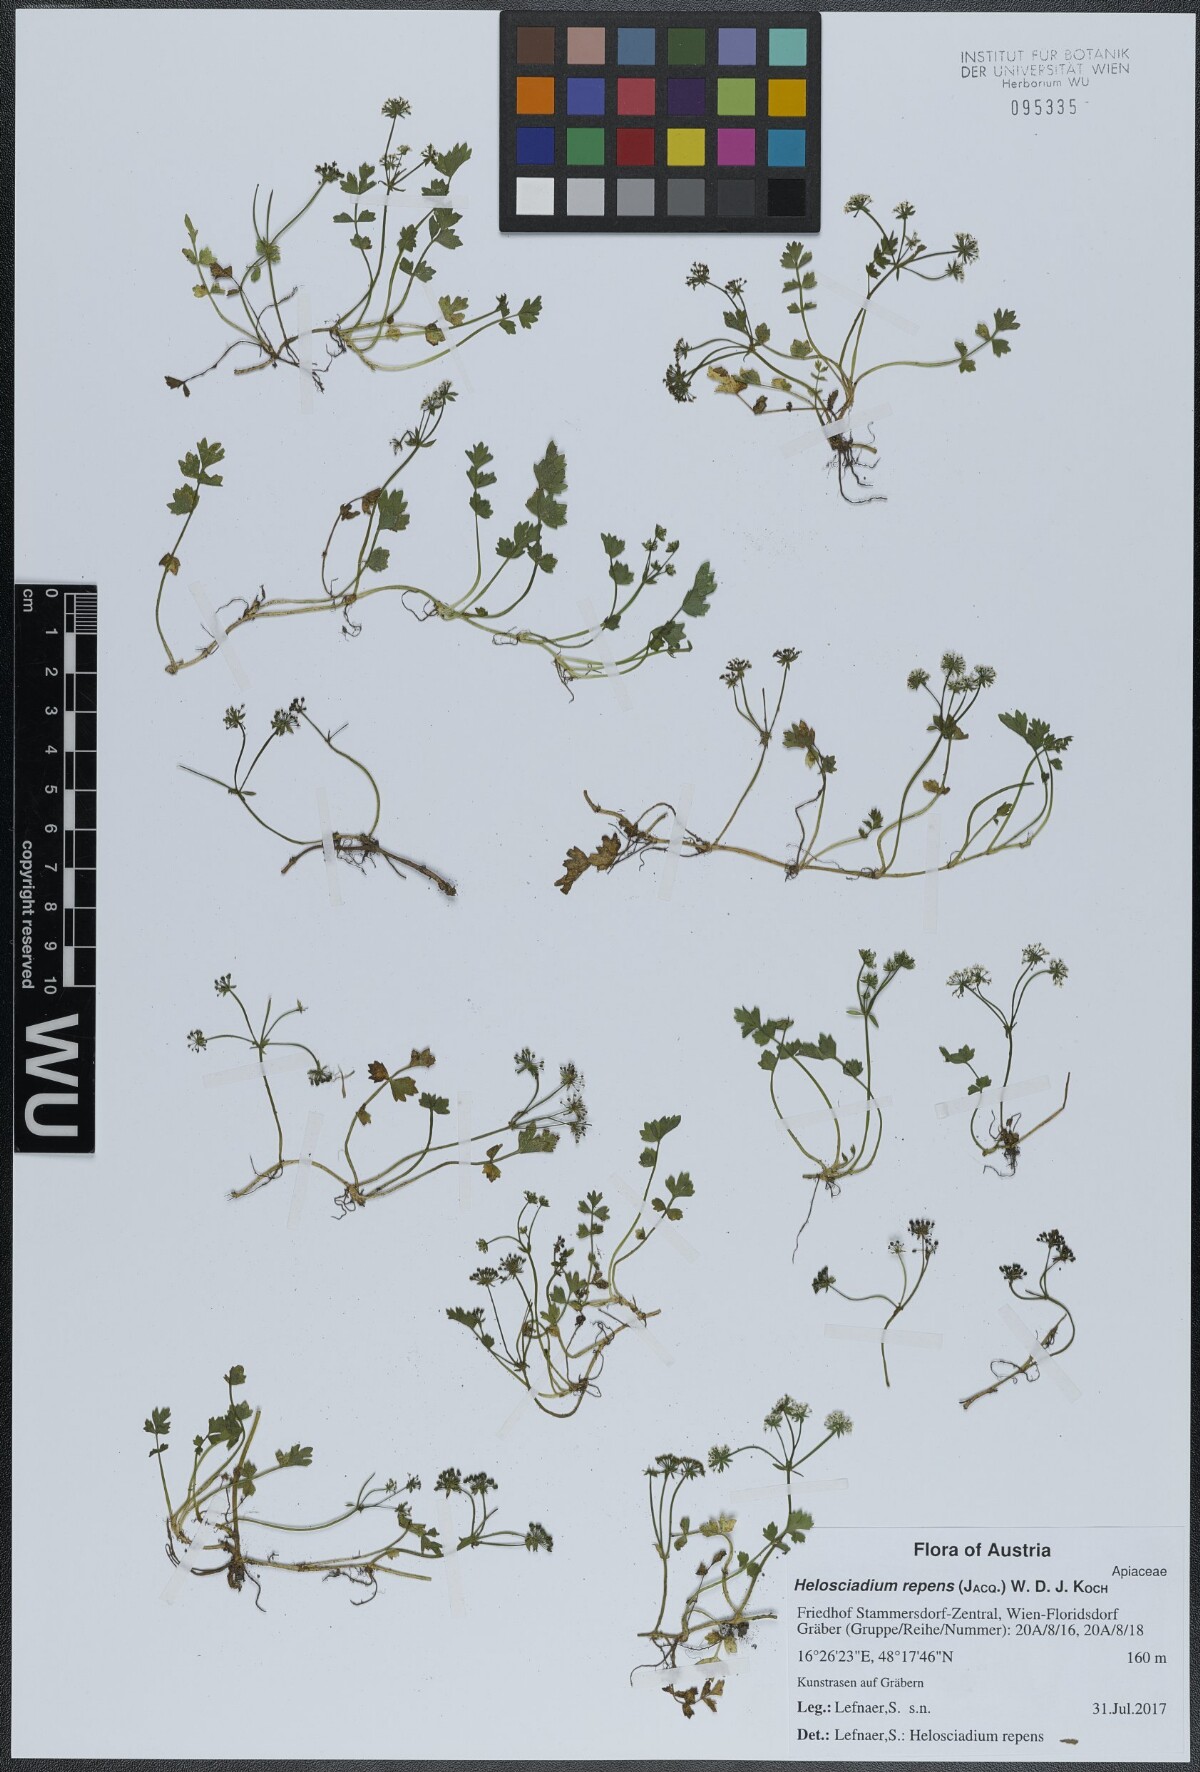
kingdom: Plantae
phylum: Tracheophyta
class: Magnoliopsida
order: Apiales
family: Apiaceae
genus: Helosciadium
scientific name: Helosciadium repens
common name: Creeping marshwort
